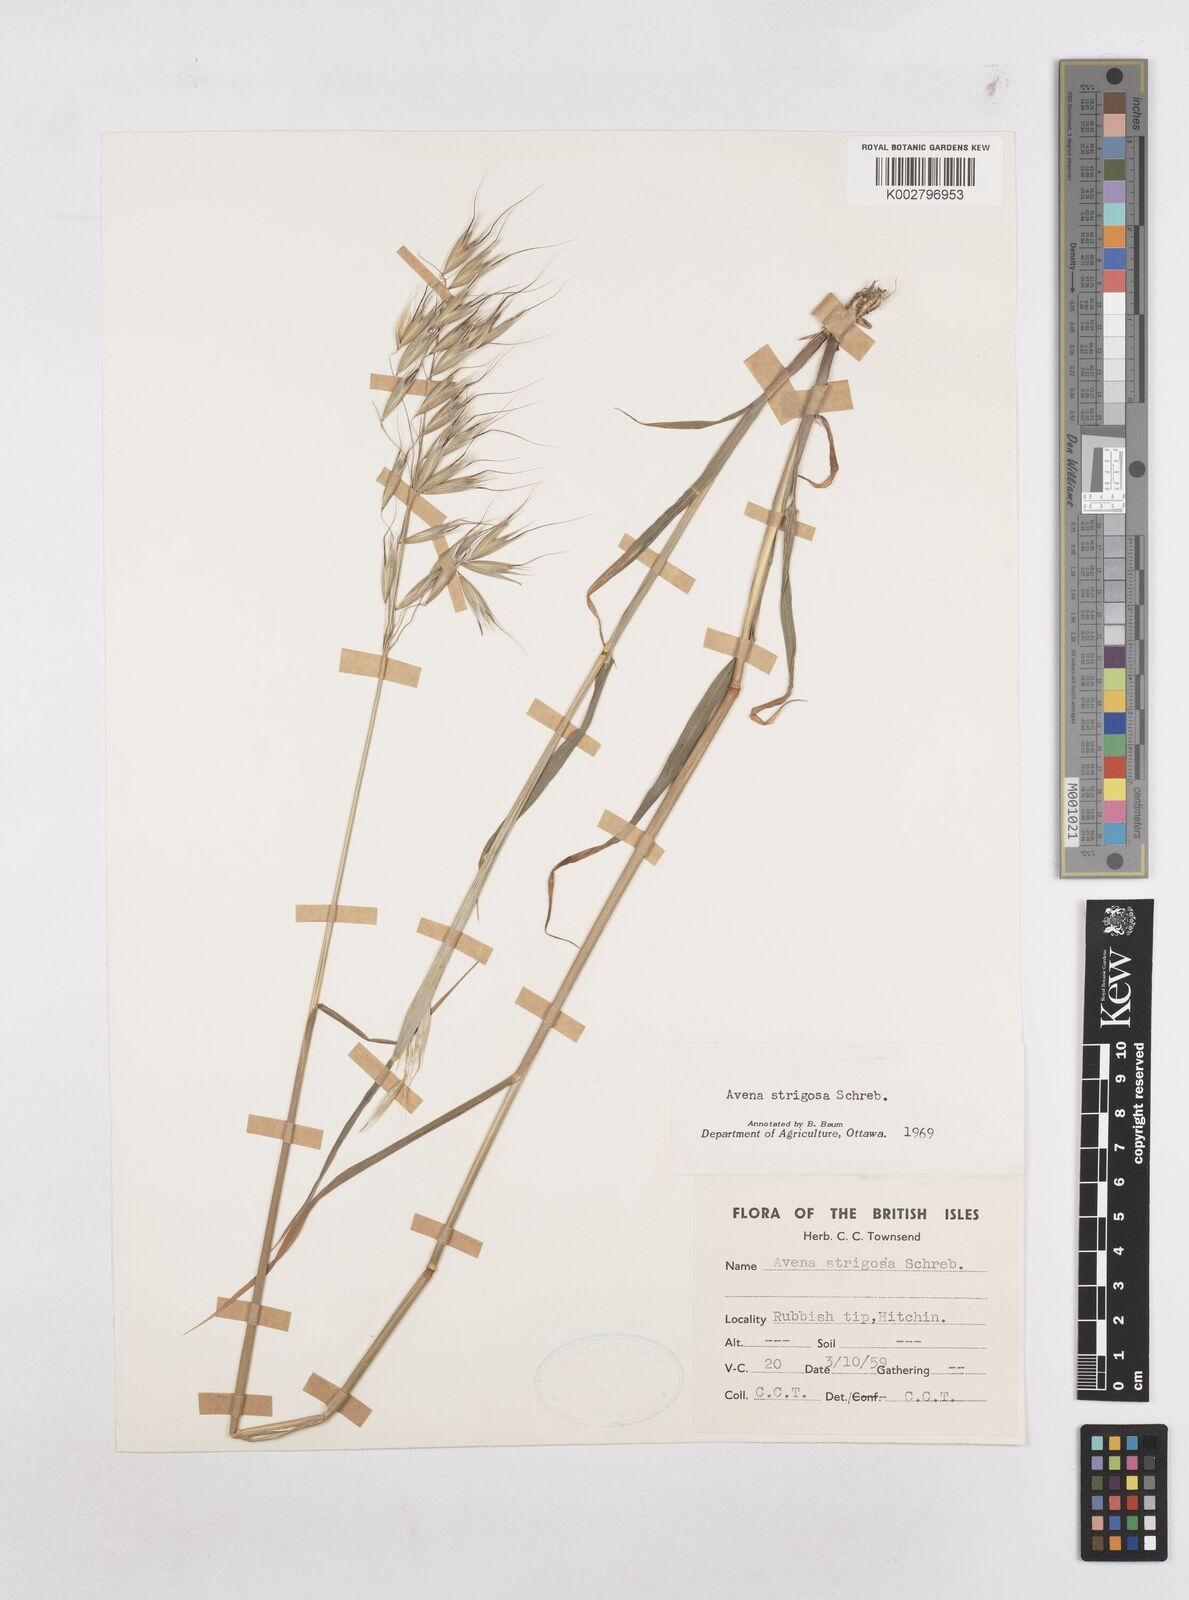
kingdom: Plantae
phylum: Tracheophyta
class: Liliopsida
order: Poales
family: Poaceae
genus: Avena
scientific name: Avena strigosa
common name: Bristle oat
